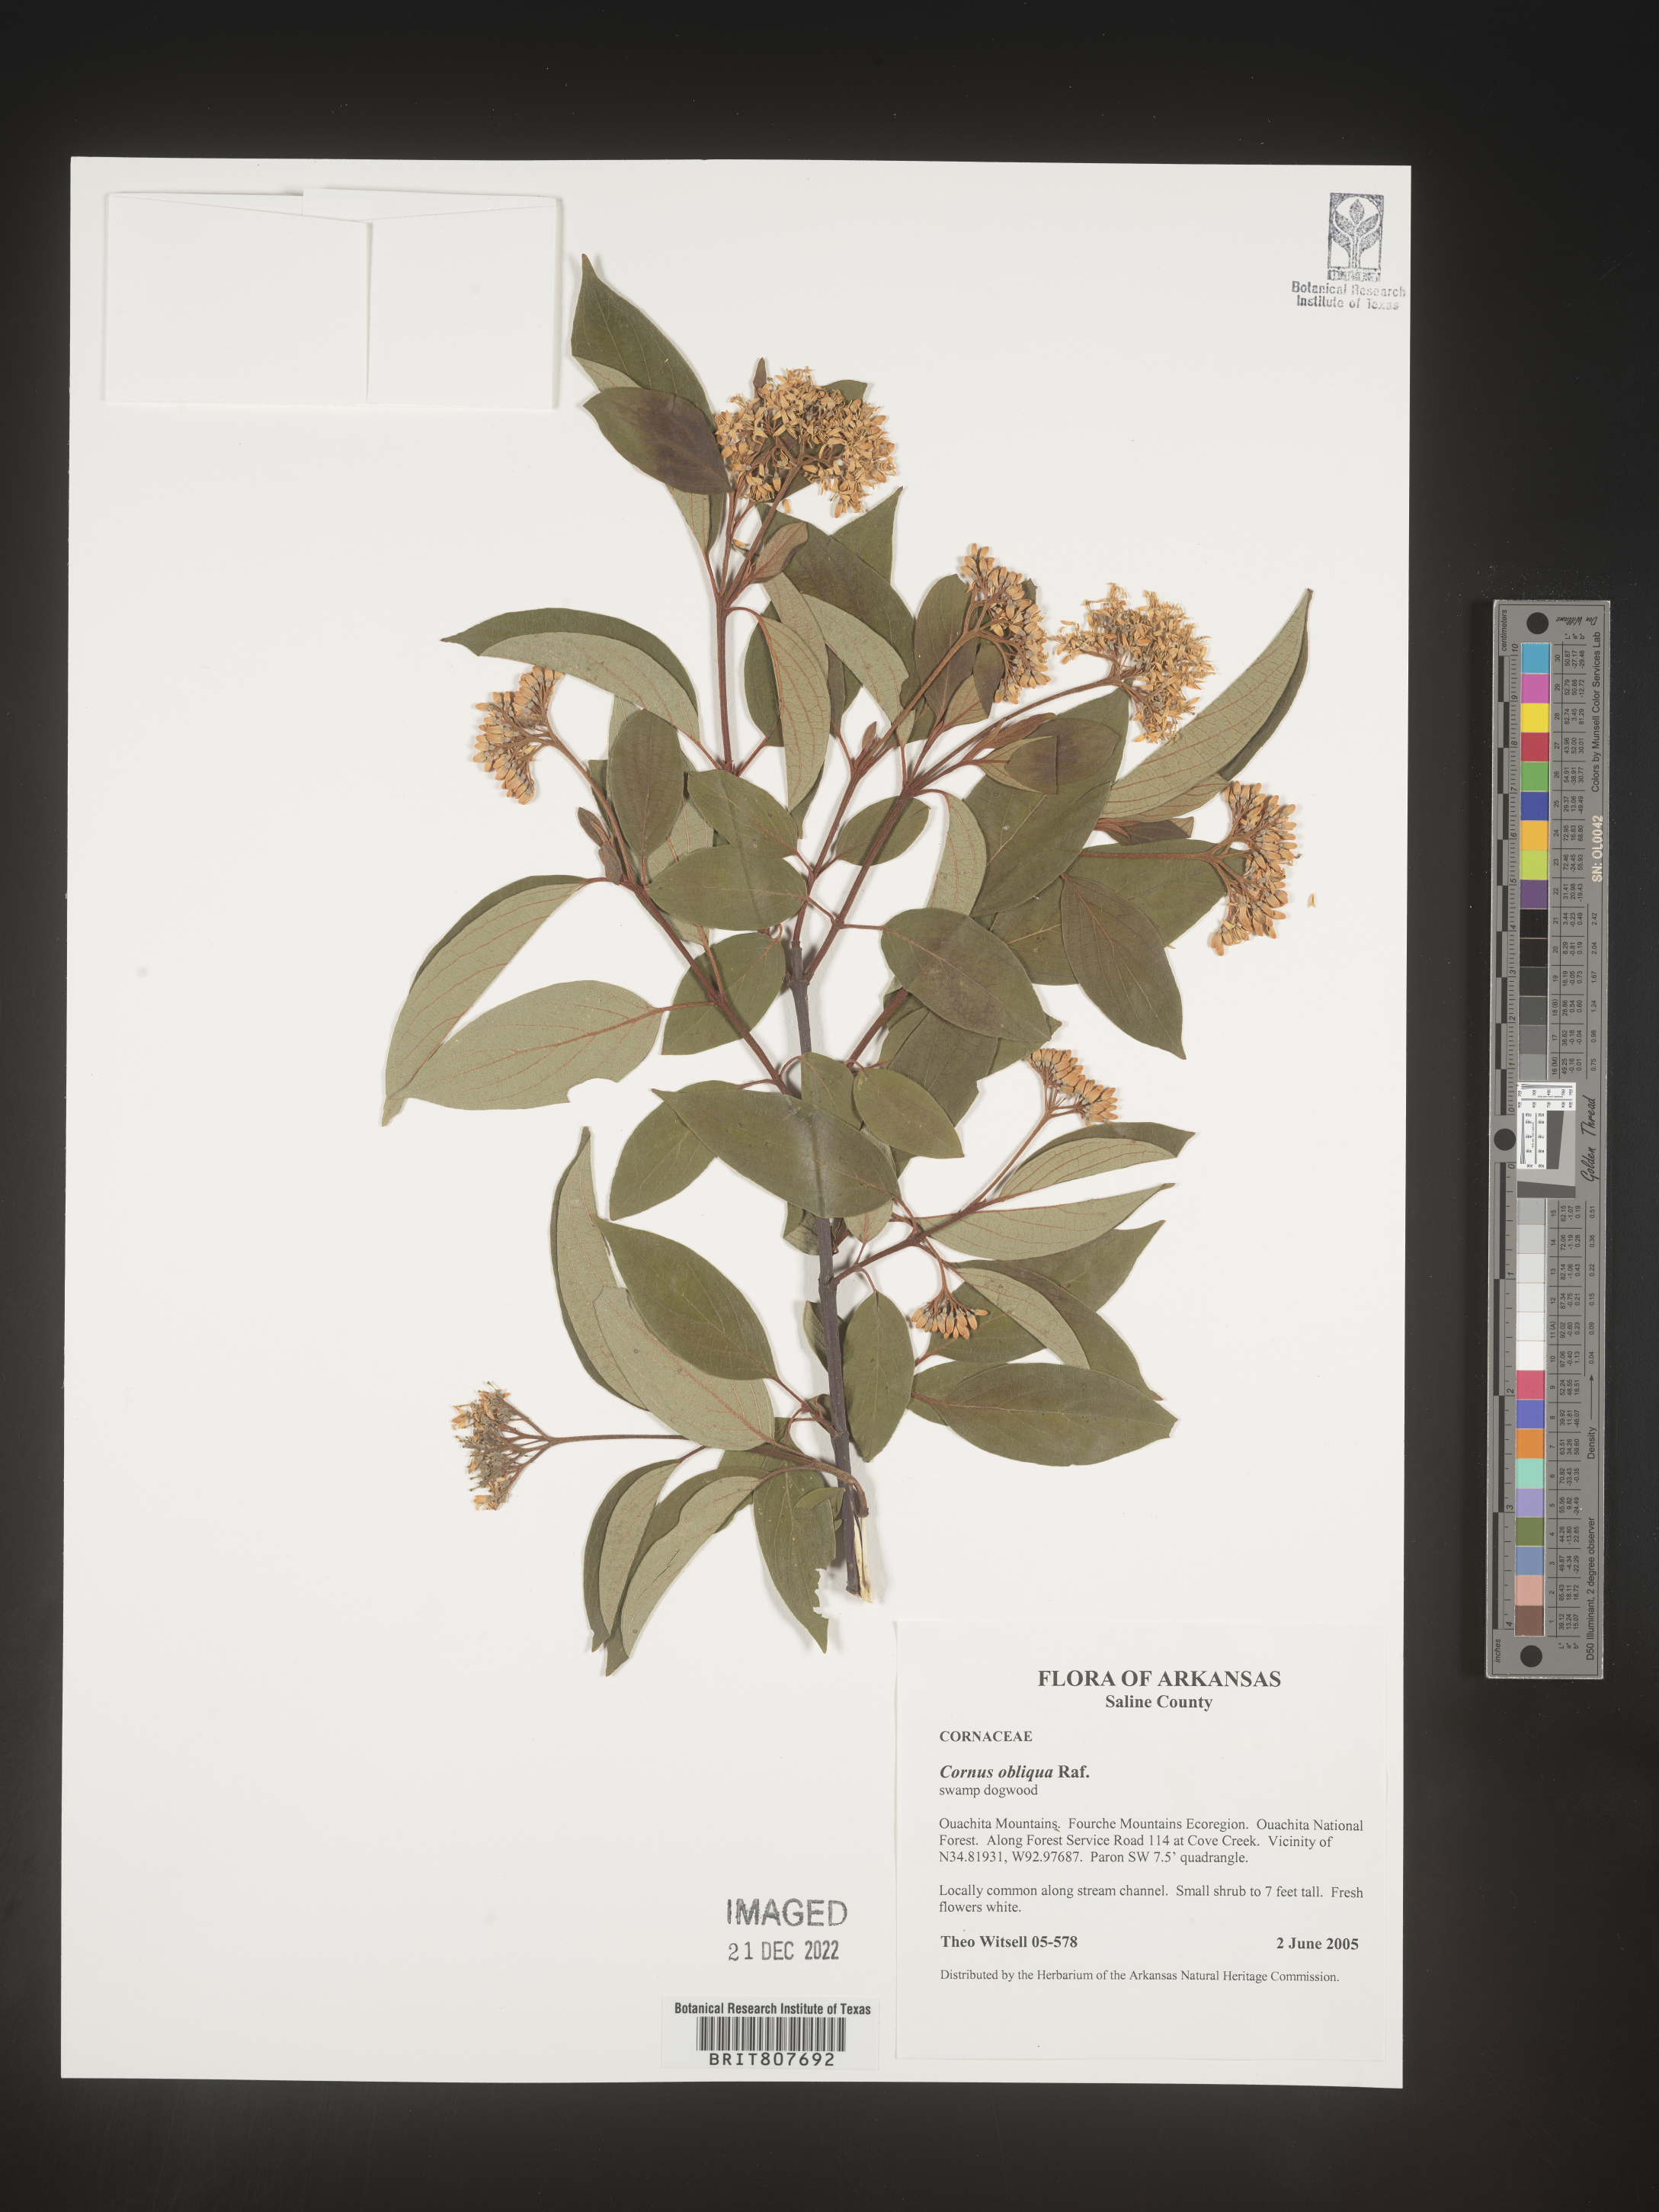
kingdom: Plantae
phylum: Tracheophyta
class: Magnoliopsida
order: Cornales
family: Cornaceae
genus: Cornus
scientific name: Cornus obliqua
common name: Pale dogwood
